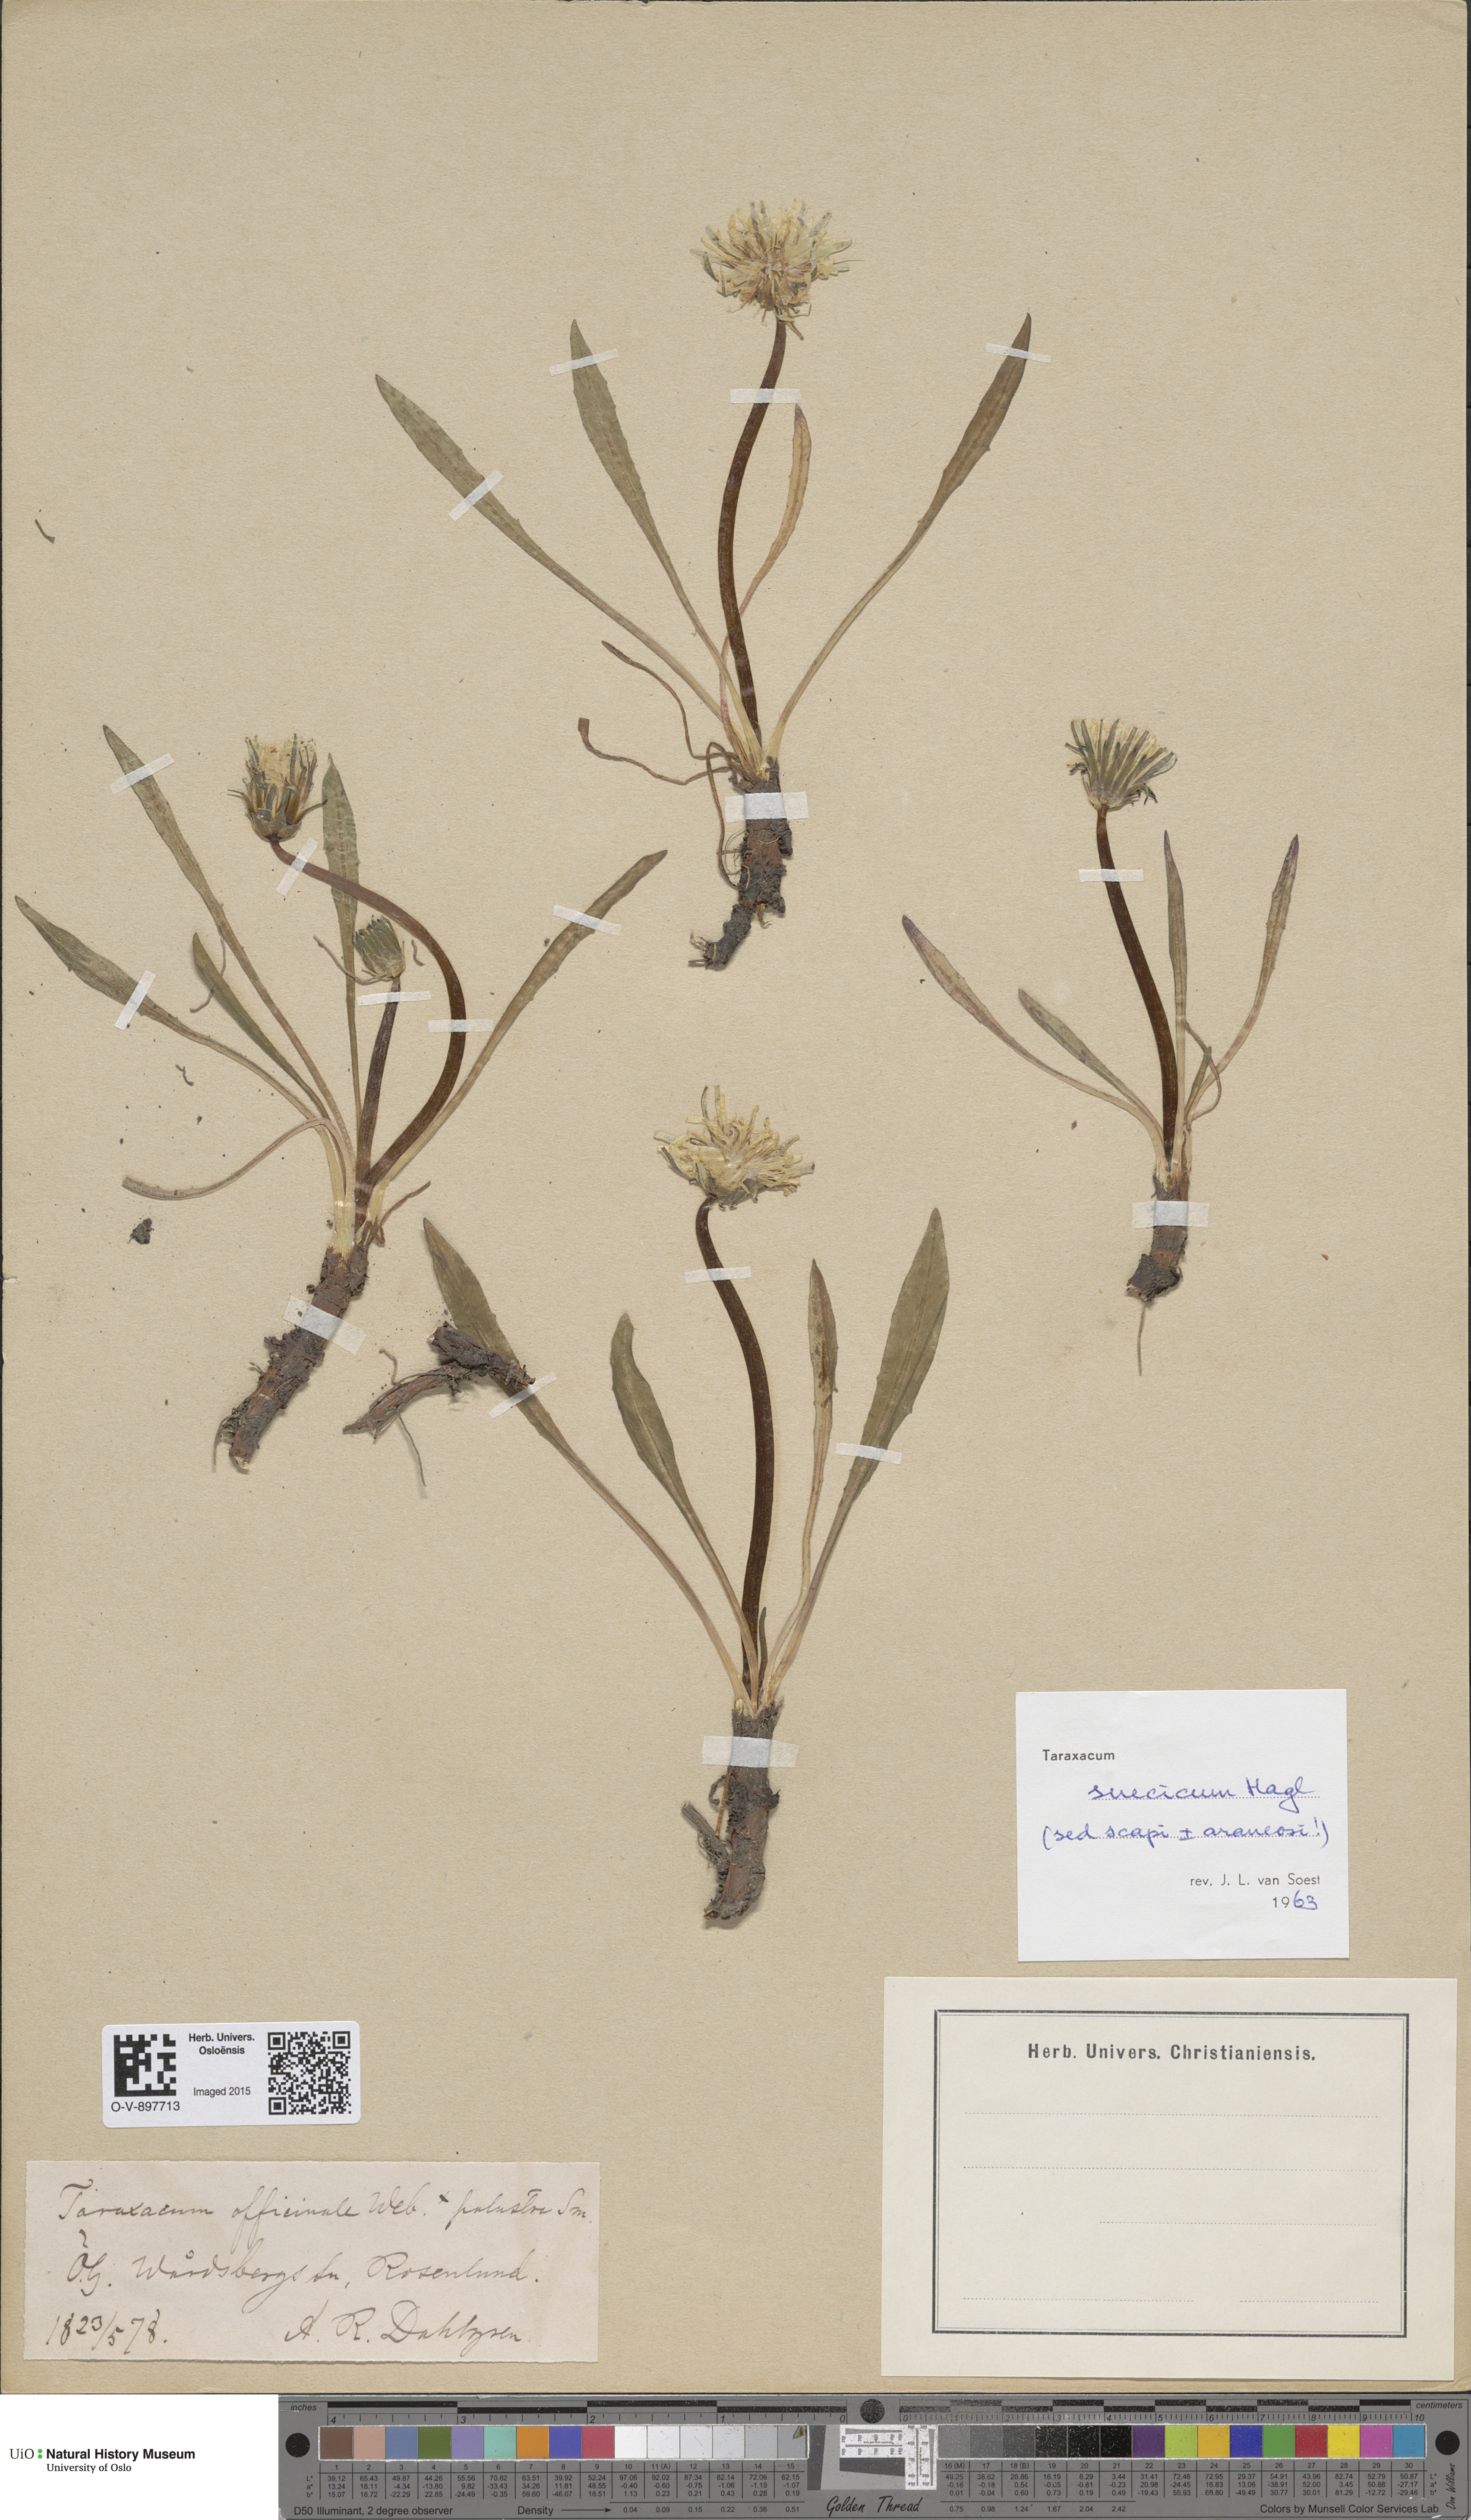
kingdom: Plantae
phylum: Tracheophyta
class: Magnoliopsida
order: Asterales
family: Asteraceae
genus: Taraxacum
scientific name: Taraxacum officinale
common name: Common dandelion
